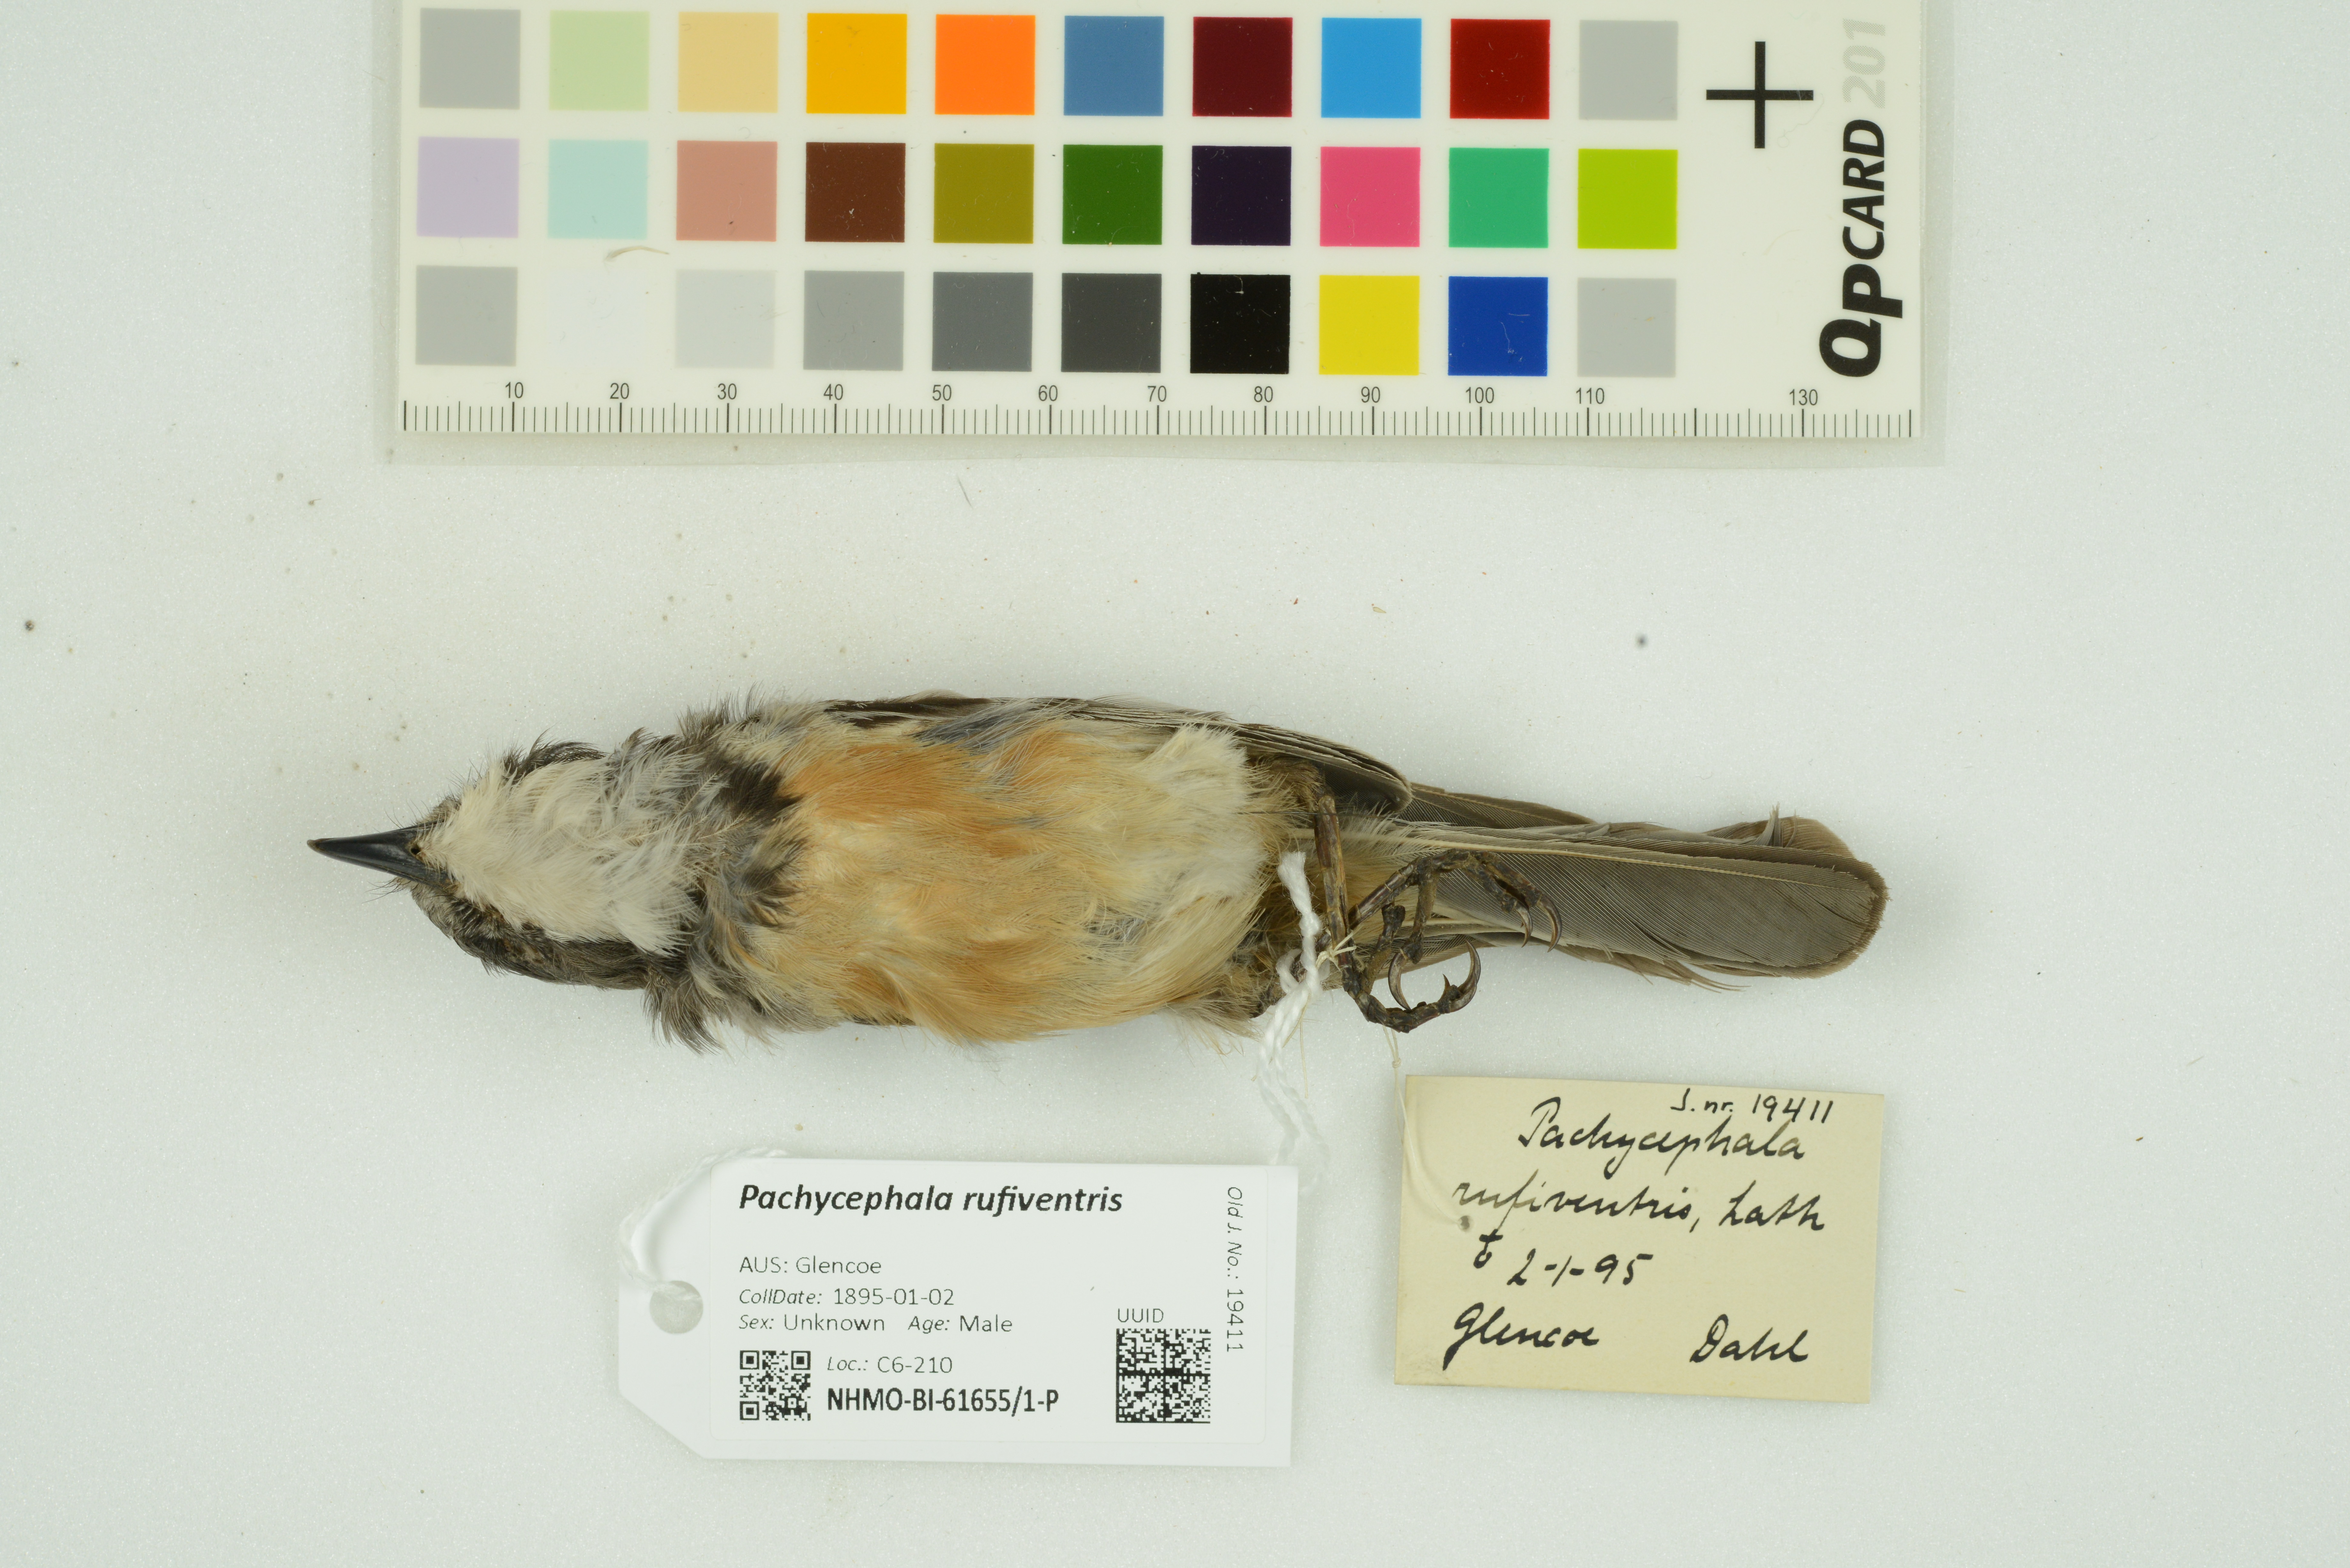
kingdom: Animalia
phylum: Chordata
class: Aves
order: Passeriformes
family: Pachycephalidae
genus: Pachycephala
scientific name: Pachycephala rufiventris
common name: Rufous whistler
